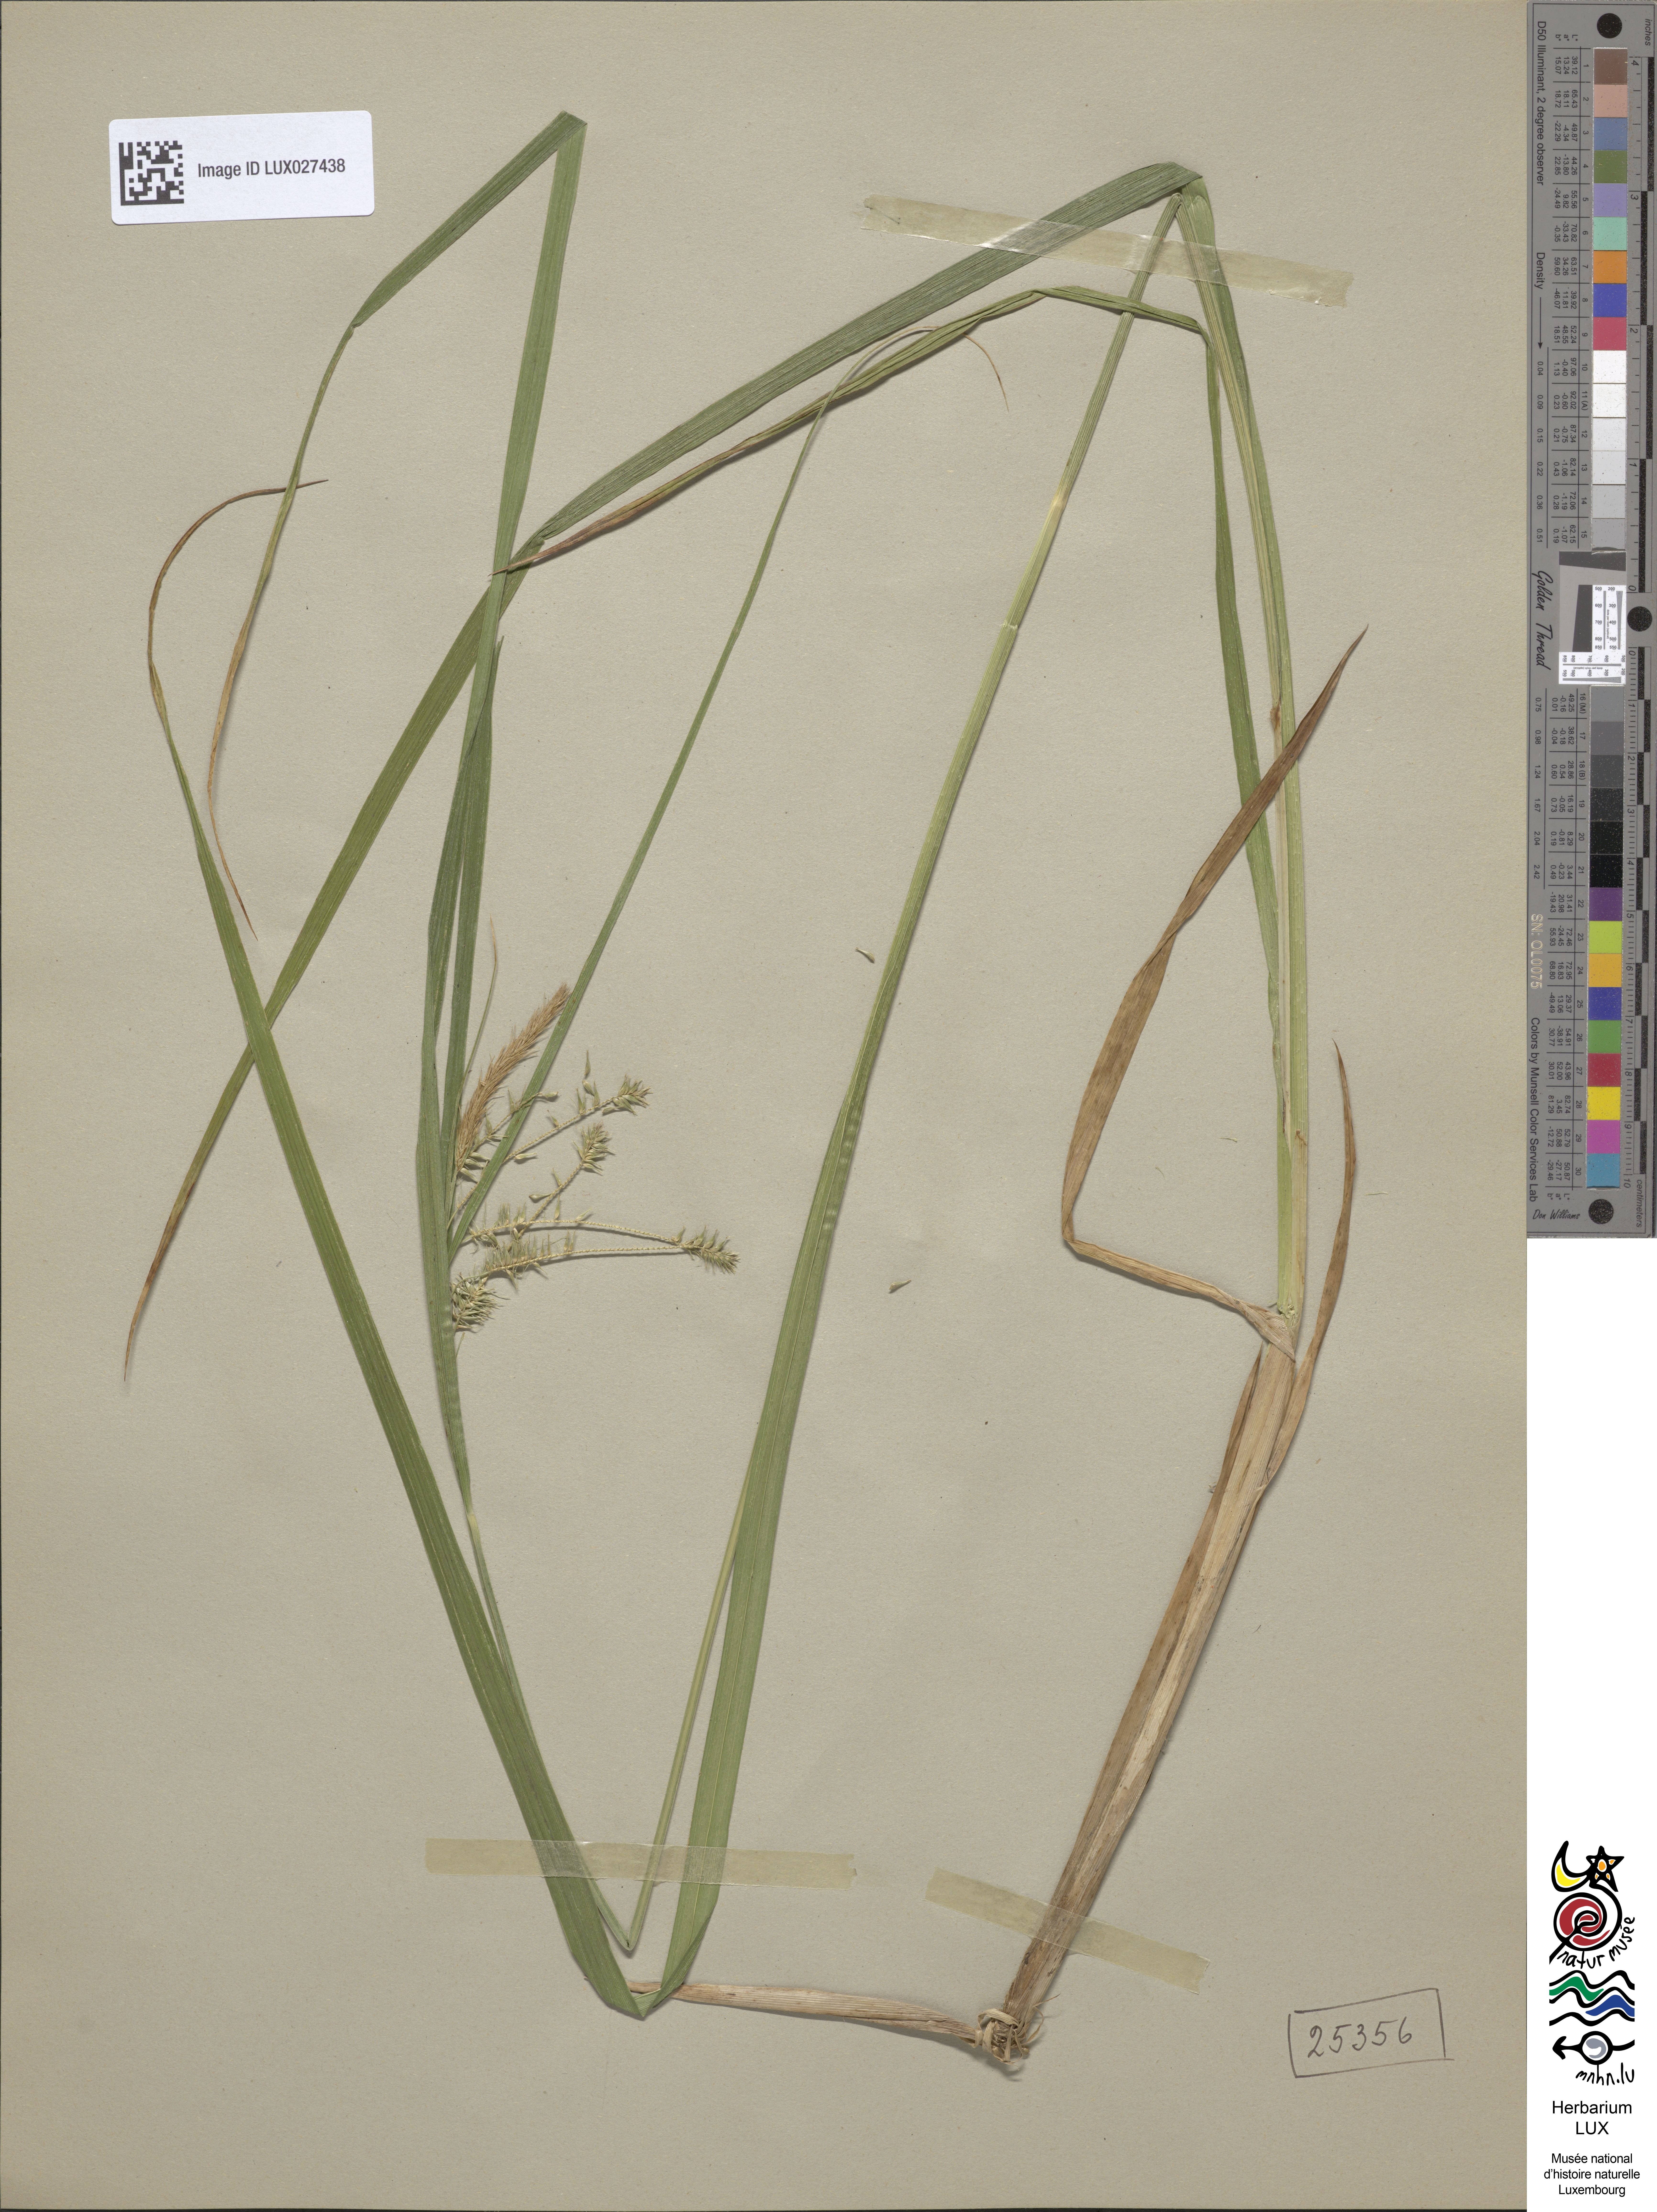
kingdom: Plantae
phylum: Tracheophyta
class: Liliopsida
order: Poales
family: Cyperaceae
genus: Carex
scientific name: Carex pseudocyperus
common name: Cyperus sedge
